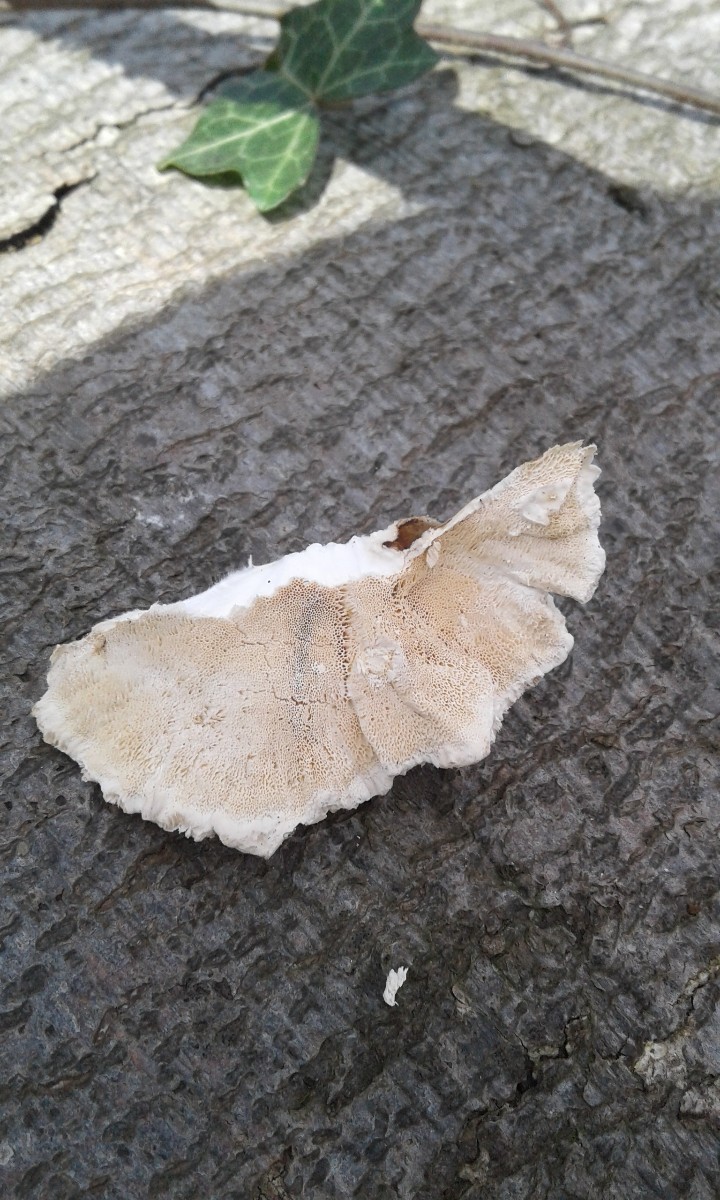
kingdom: Fungi
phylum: Basidiomycota
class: Agaricomycetes
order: Polyporales
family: Polyporaceae
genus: Trametes
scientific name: Trametes
